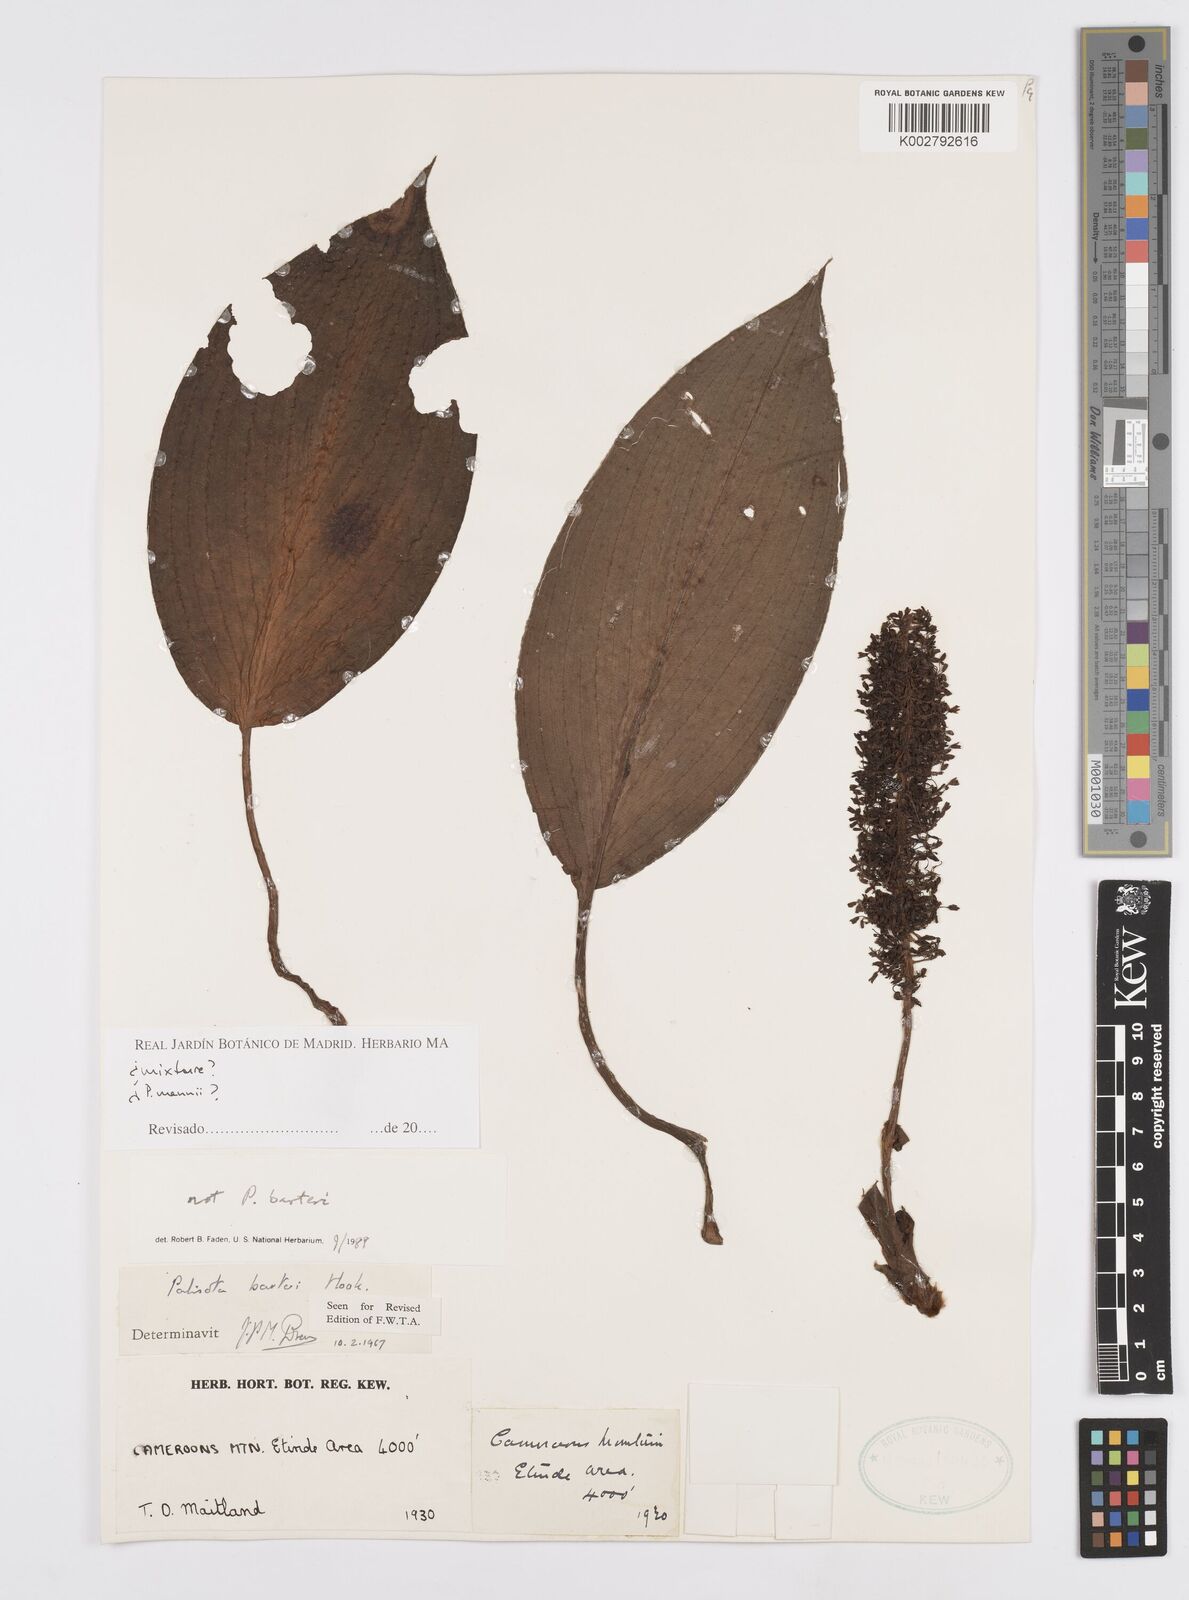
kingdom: Plantae
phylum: Tracheophyta
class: Liliopsida
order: Commelinales
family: Commelinaceae
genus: Palisota
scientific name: Palisota
